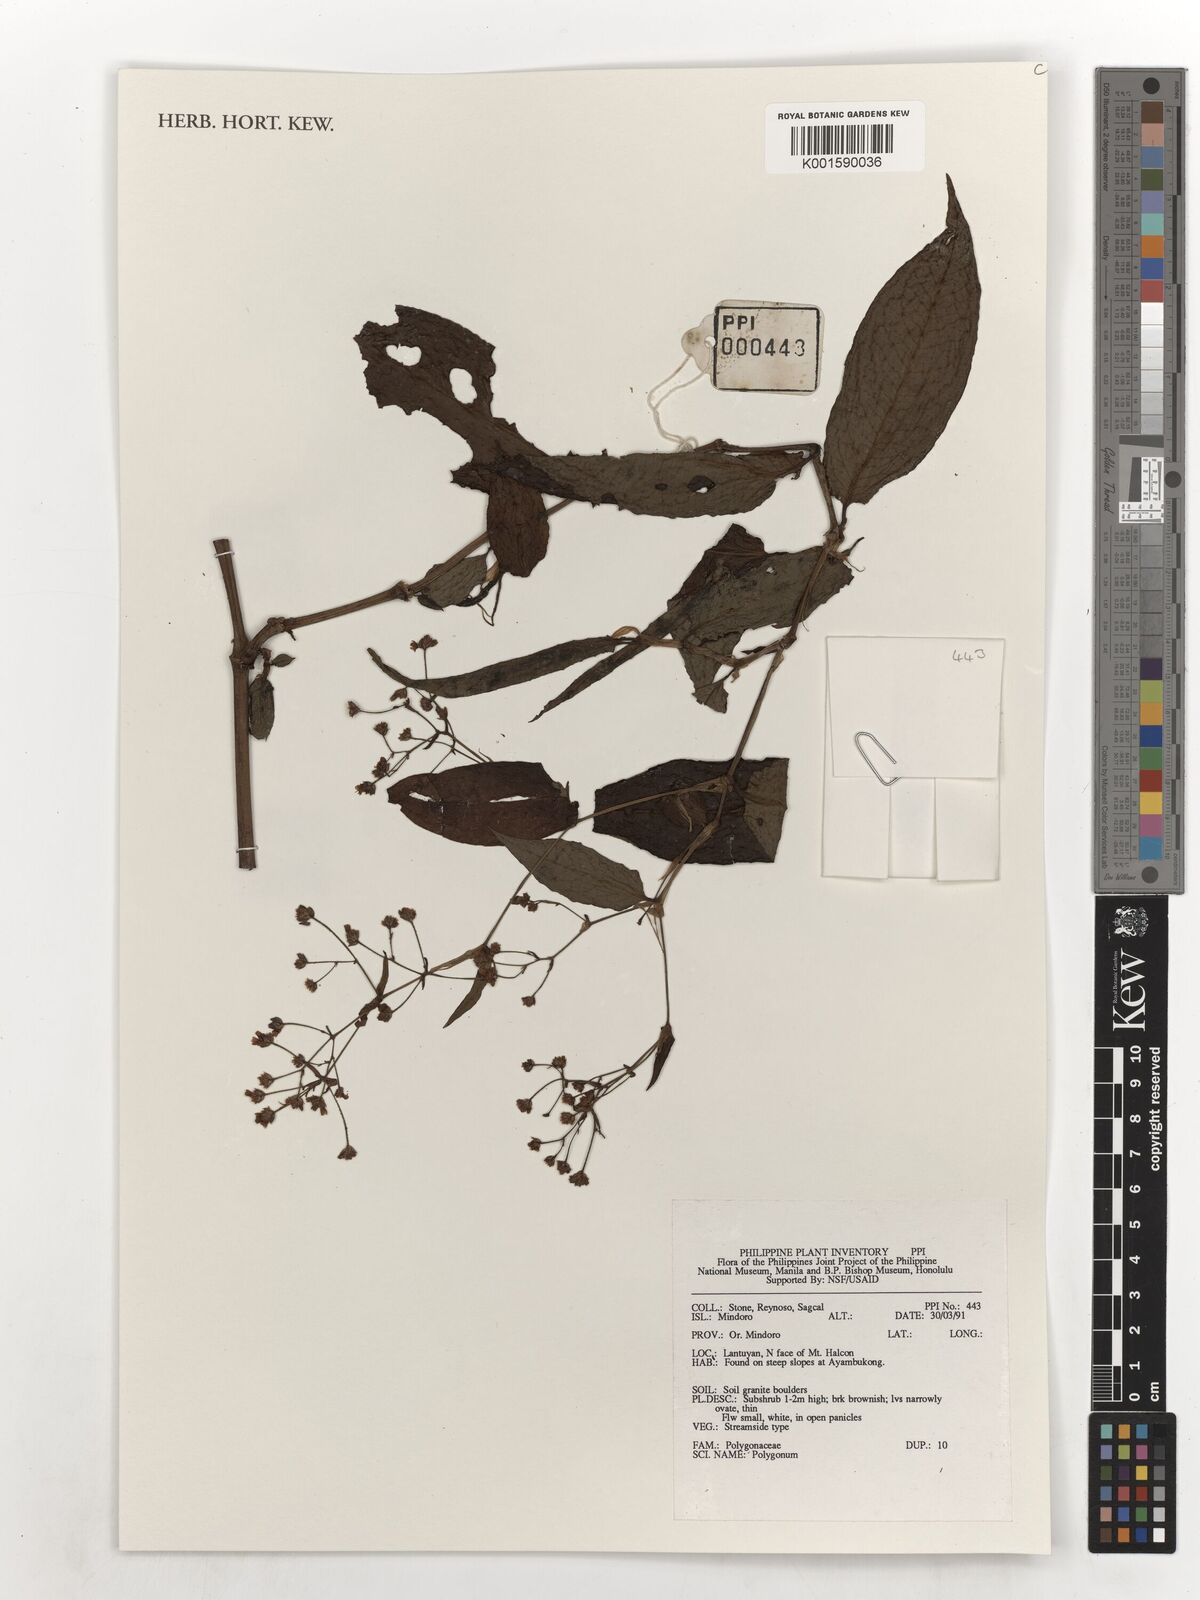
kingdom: Plantae
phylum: Tracheophyta
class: Magnoliopsida
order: Caryophyllales
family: Polygonaceae
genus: Polygonum
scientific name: Polygonum
